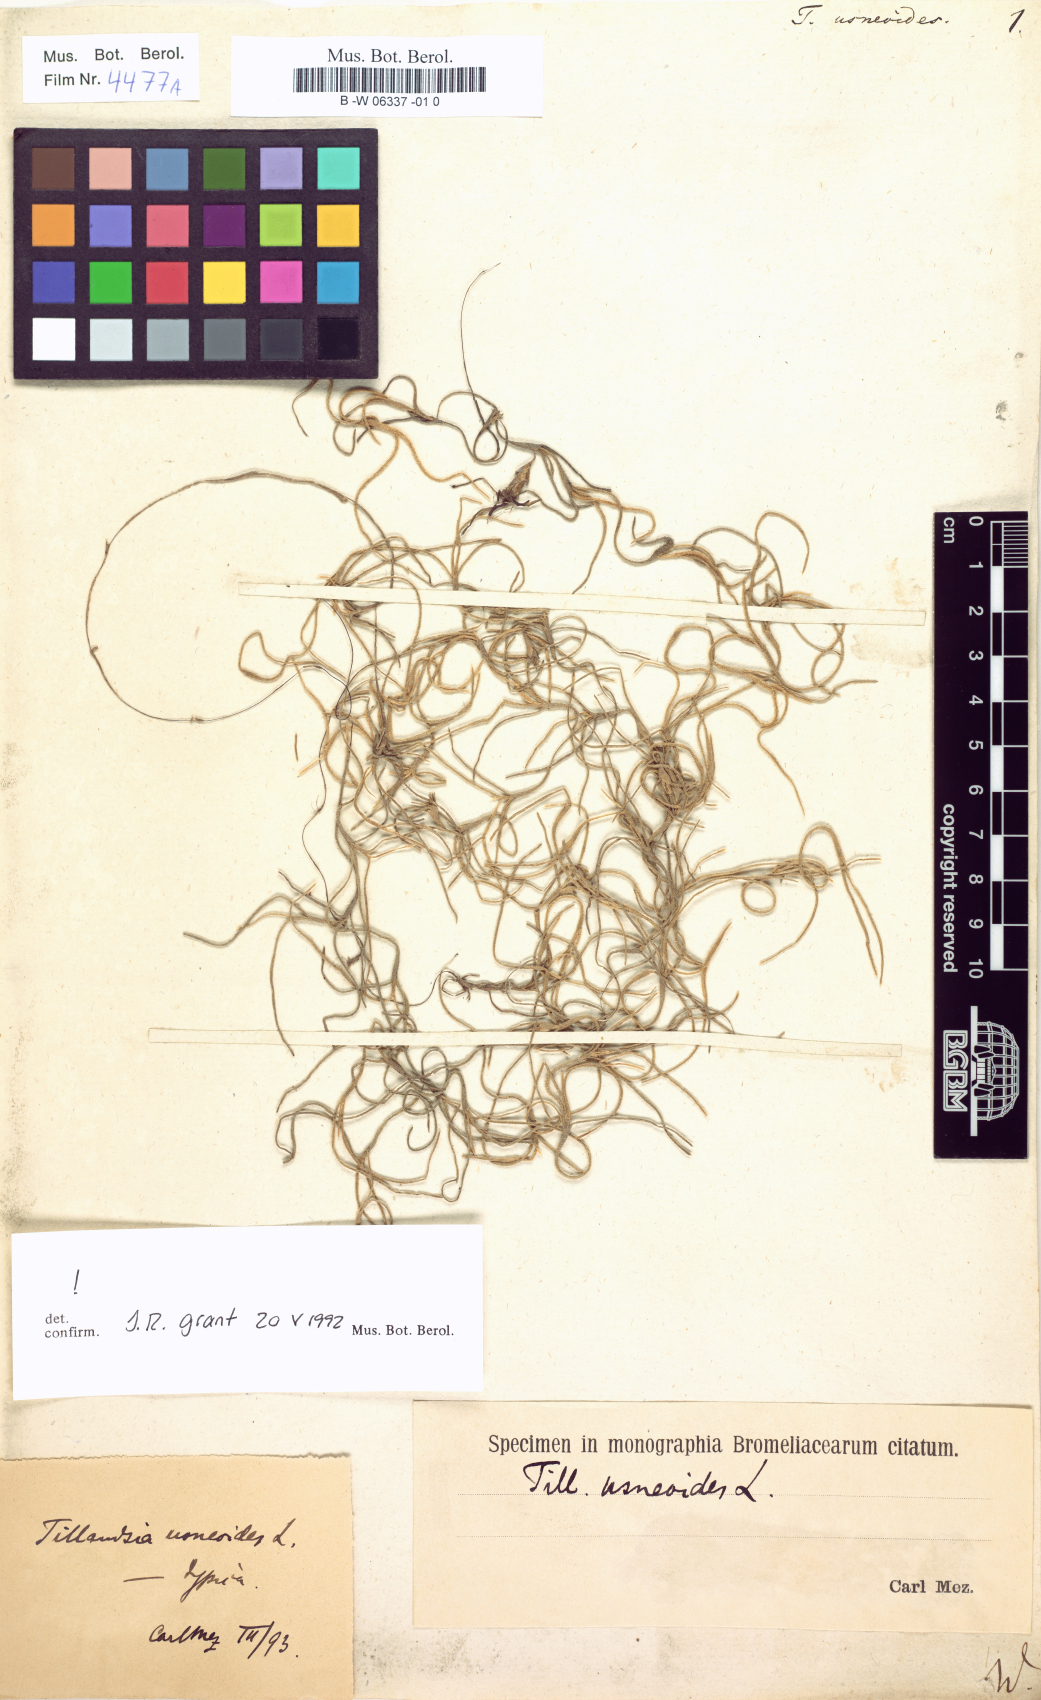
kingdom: Plantae
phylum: Tracheophyta
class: Liliopsida
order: Poales
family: Bromeliaceae
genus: Tillandsia
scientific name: Tillandsia usneoides
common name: Spanish moss
